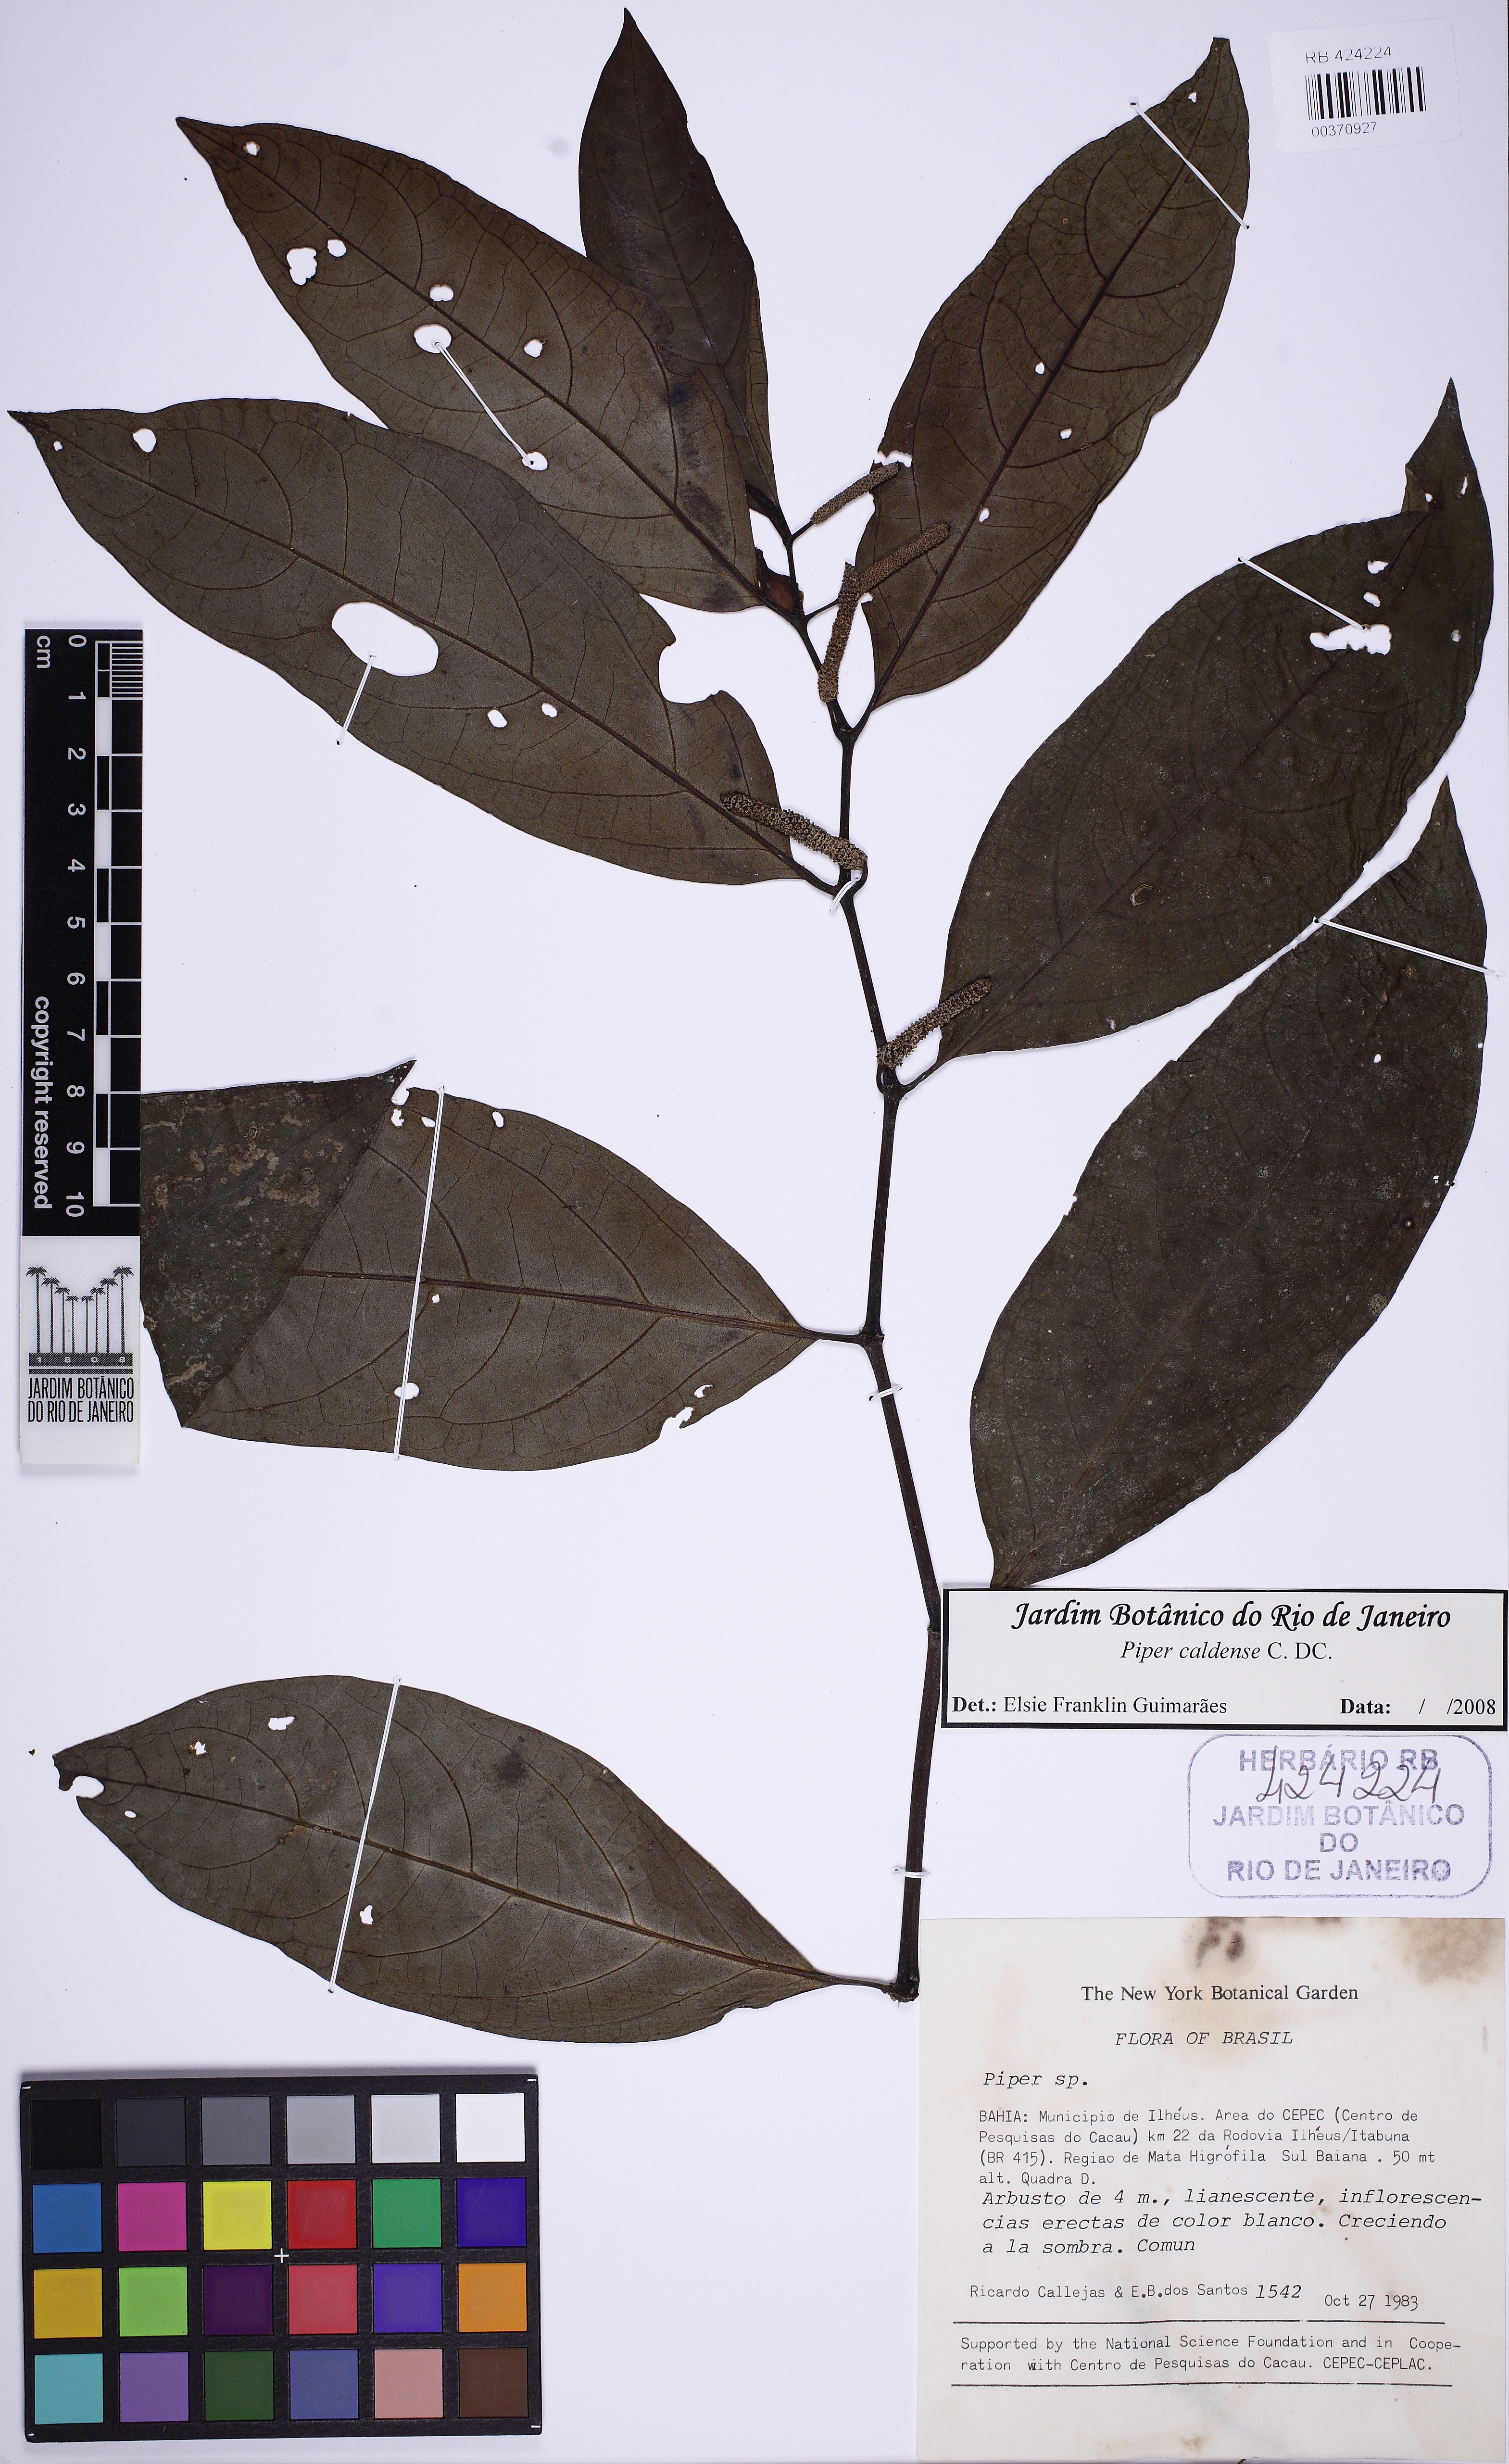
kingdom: Plantae
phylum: Tracheophyta
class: Magnoliopsida
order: Piperales
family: Piperaceae
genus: Piper
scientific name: Piper caldense
